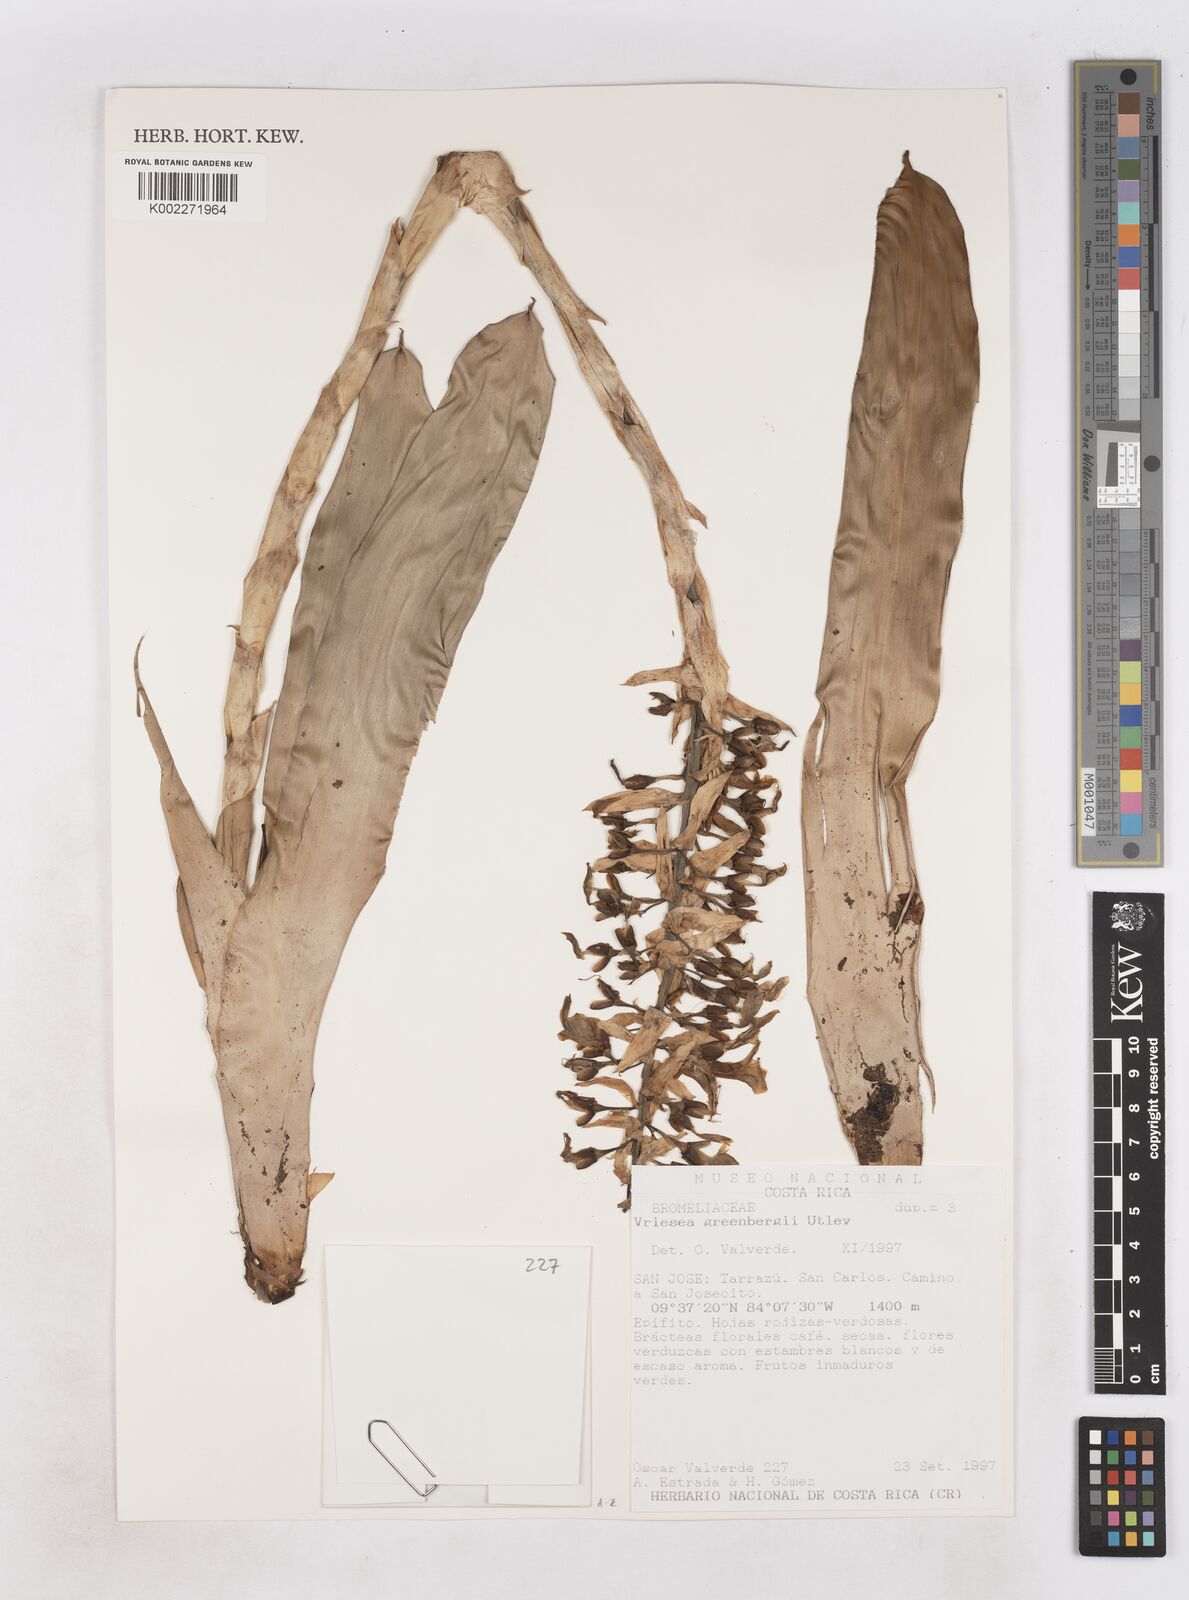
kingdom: Plantae
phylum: Tracheophyta
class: Liliopsida
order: Poales
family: Bromeliaceae
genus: Werauhia
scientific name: Werauhia patzeltii
